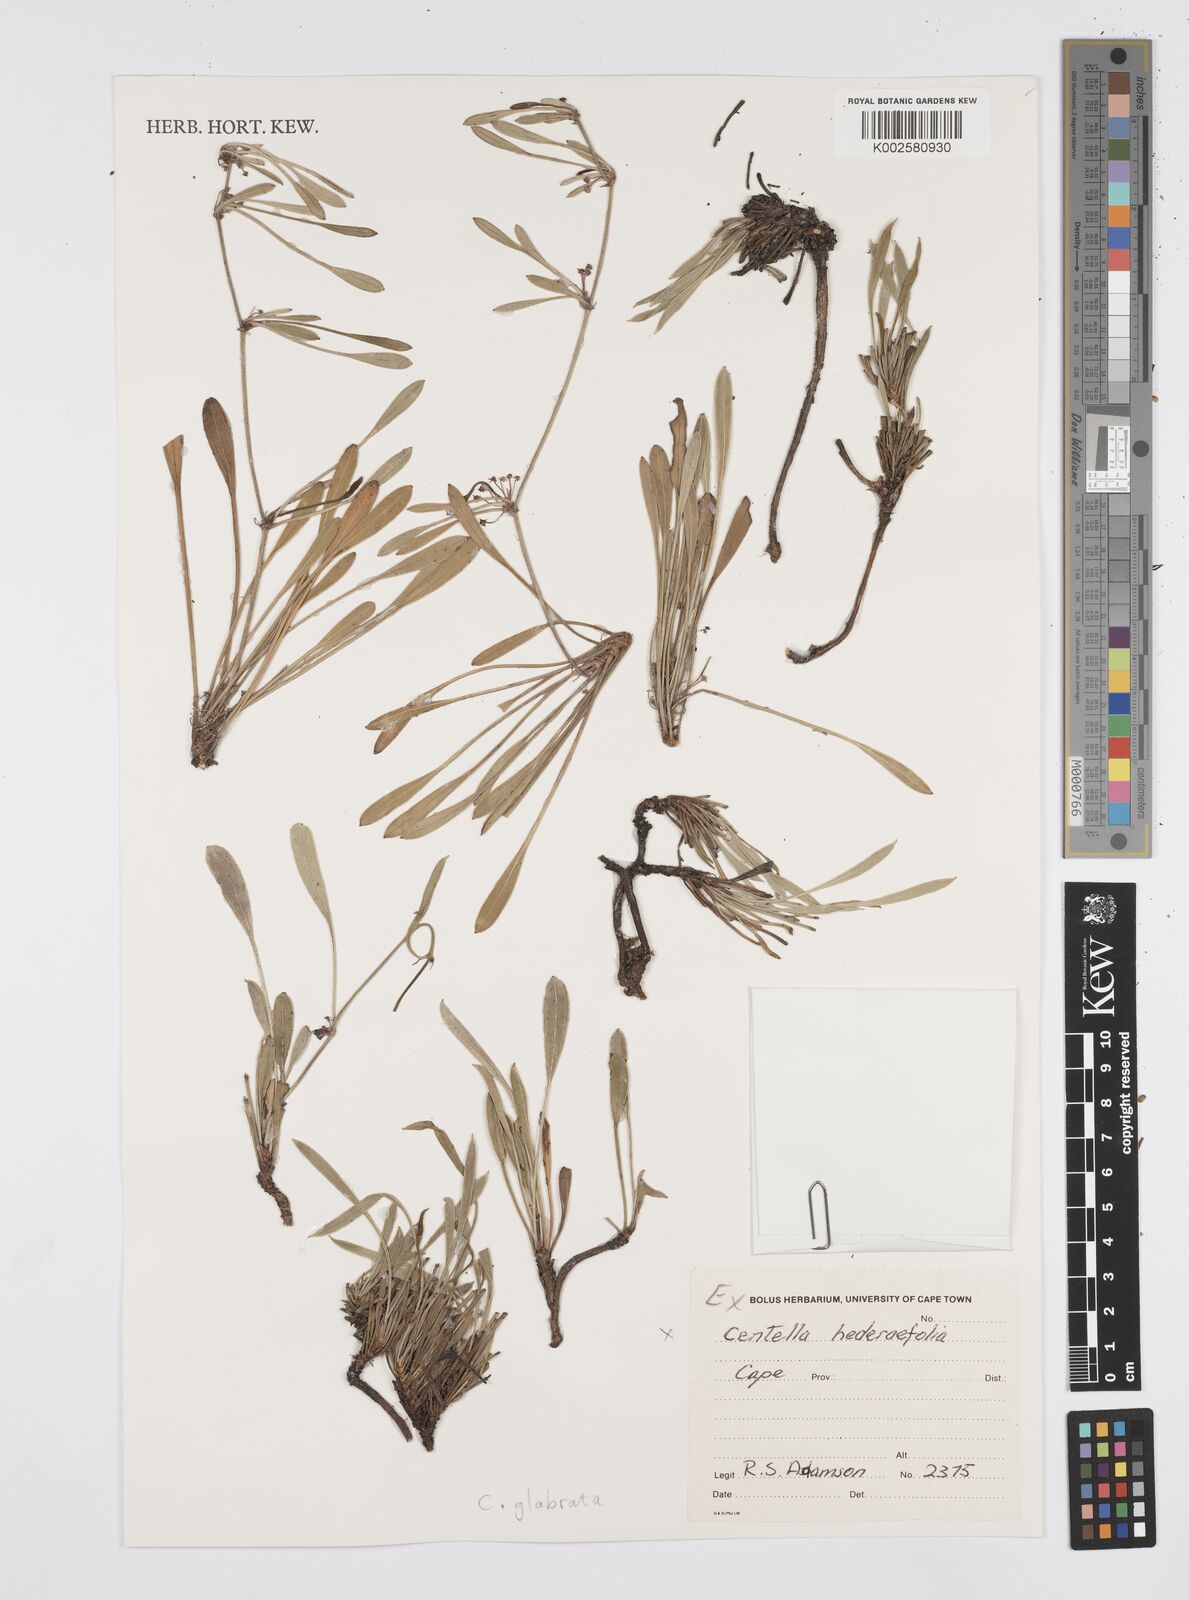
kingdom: Plantae
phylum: Tracheophyta
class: Magnoliopsida
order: Apiales
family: Apiaceae
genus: Centella
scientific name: Centella macroda
